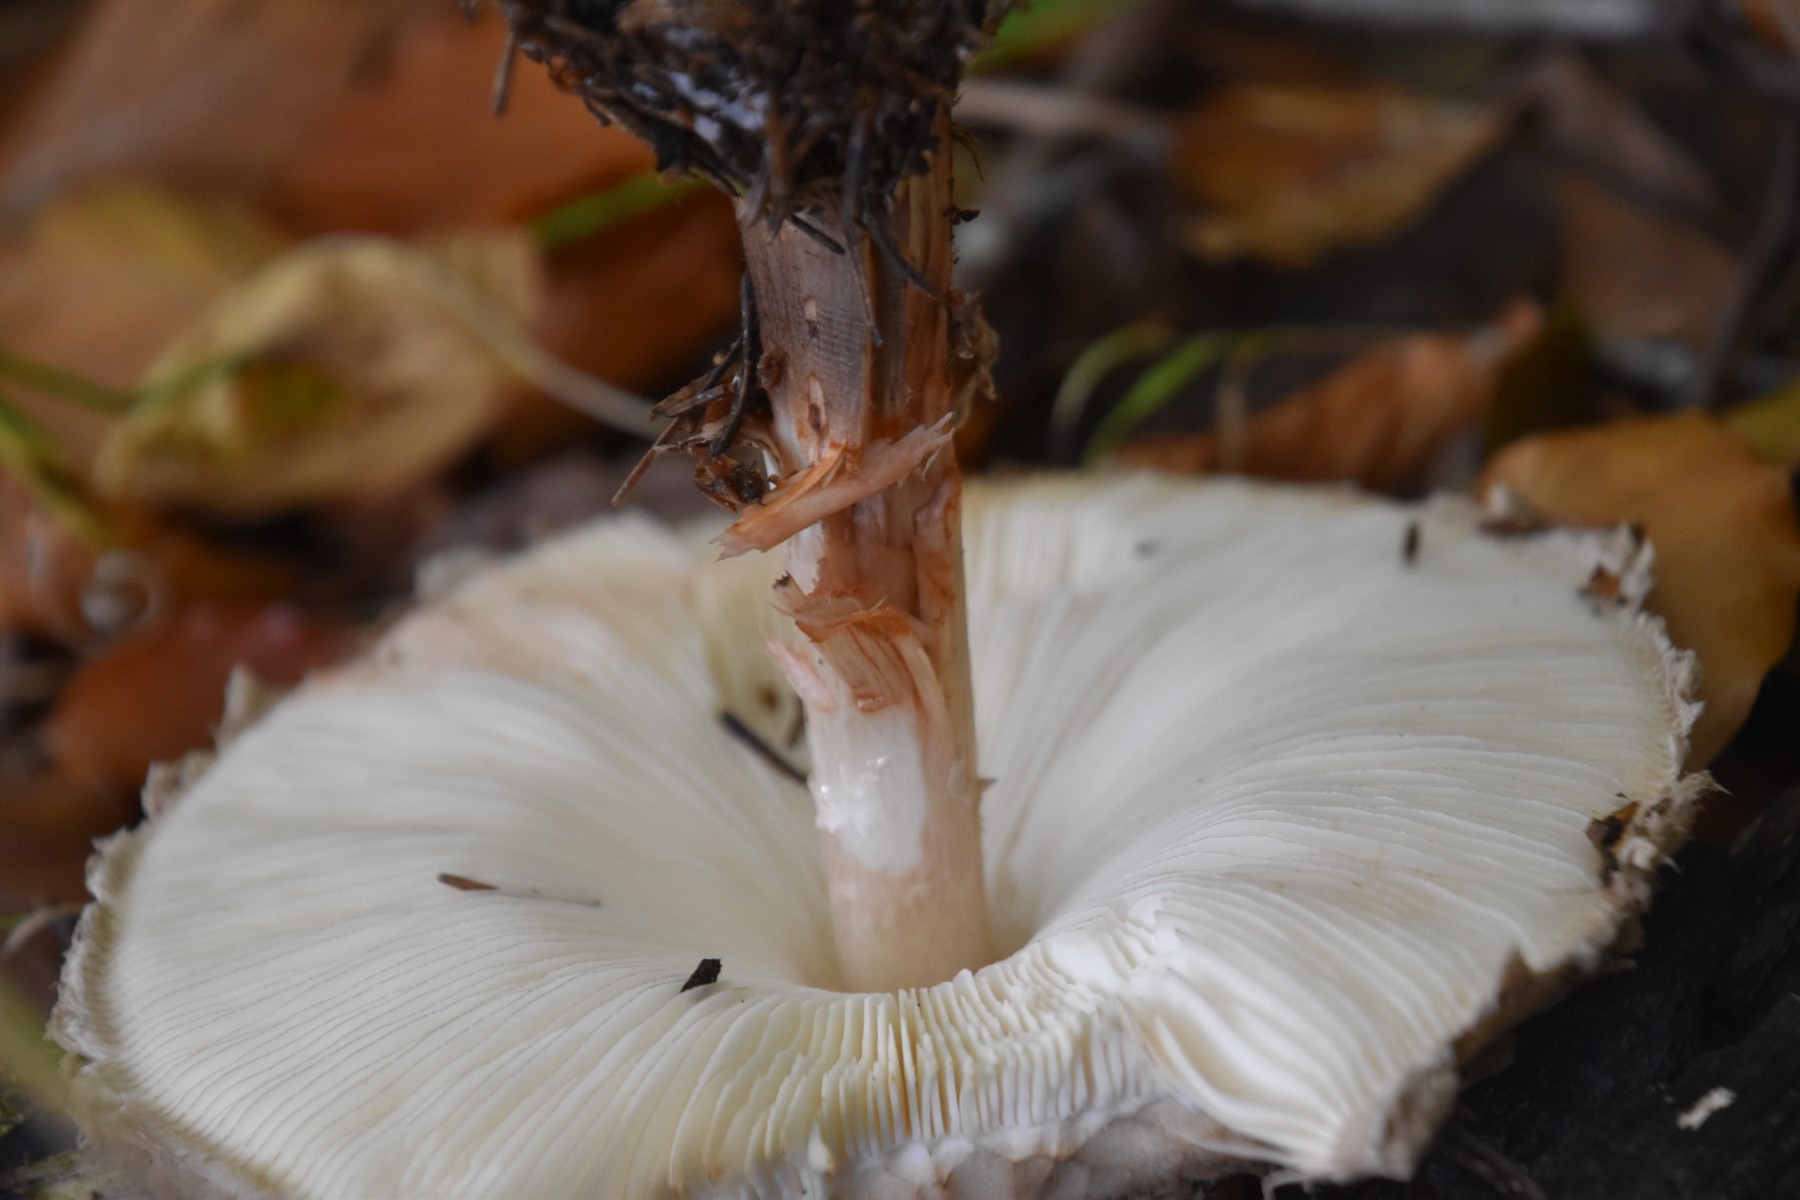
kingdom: Fungi
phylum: Basidiomycota
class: Agaricomycetes
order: Agaricales
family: Agaricaceae
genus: Chlorophyllum
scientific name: Chlorophyllum olivieri
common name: almindelig rabarberhat
